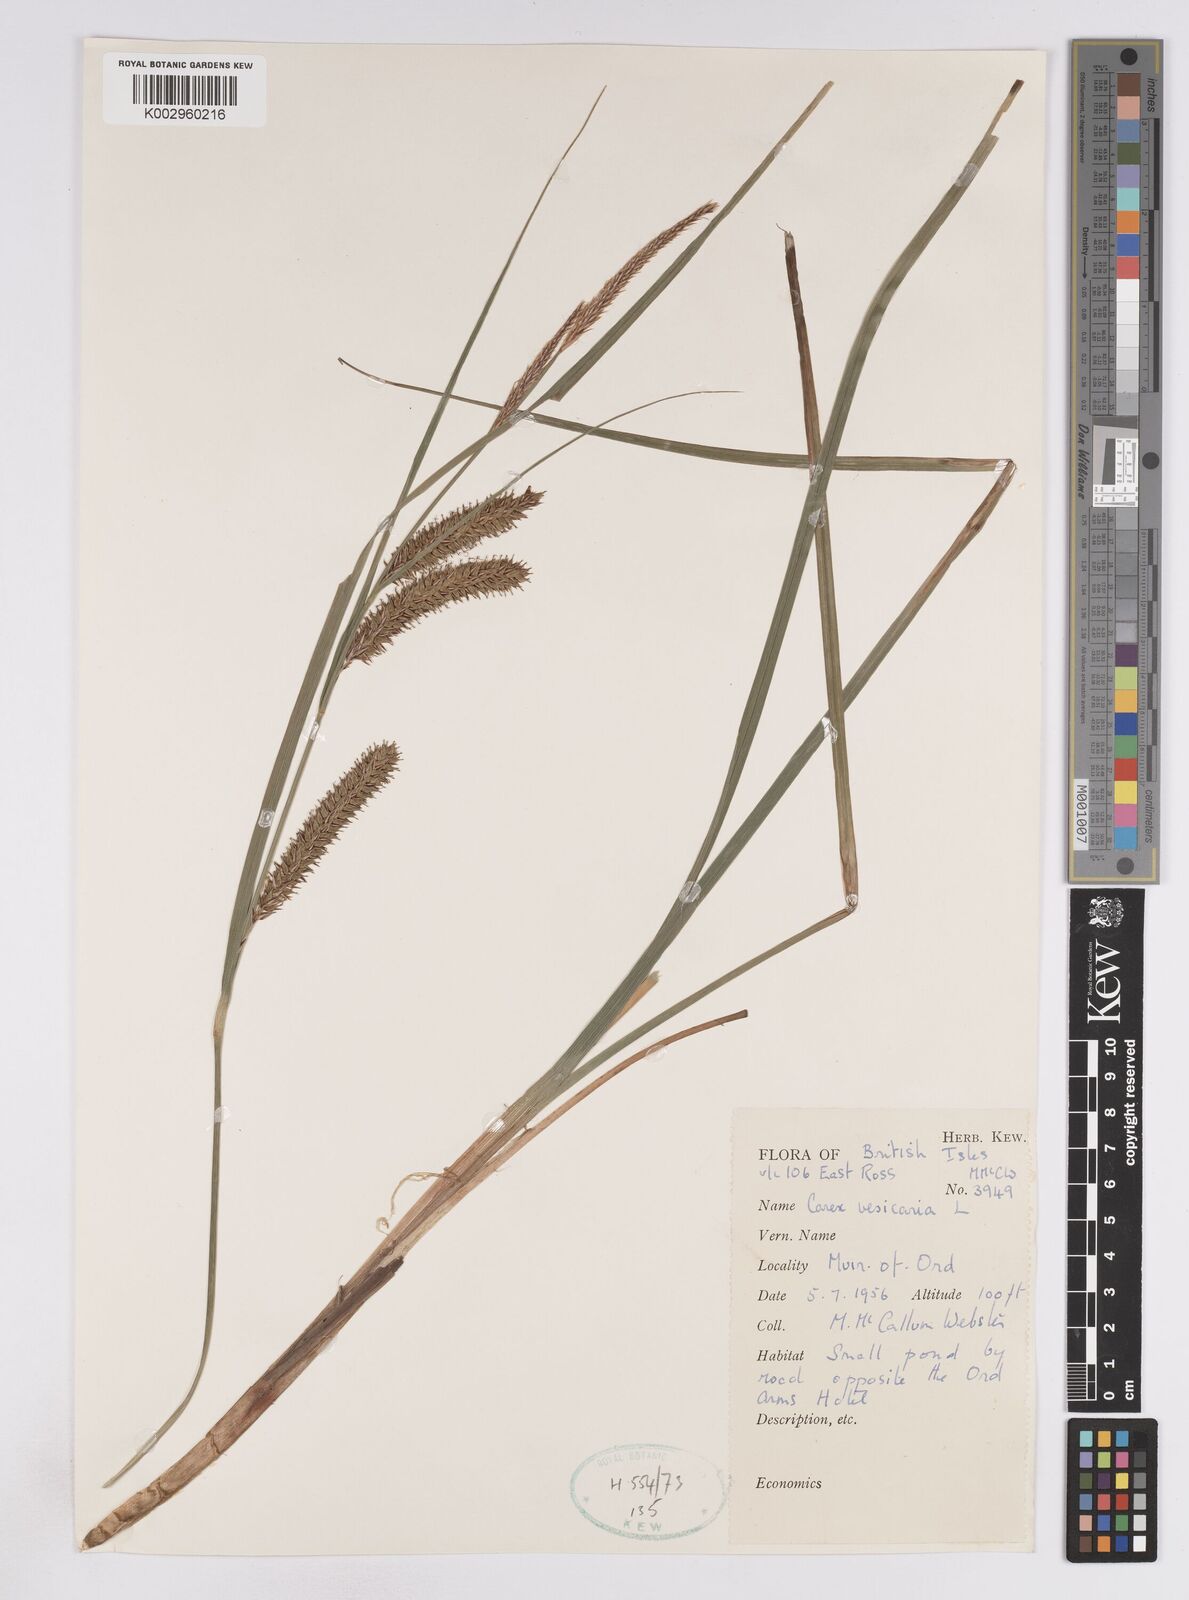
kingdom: Plantae
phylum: Tracheophyta
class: Liliopsida
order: Poales
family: Cyperaceae
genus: Carex
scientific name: Carex vesicaria
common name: Bladder-sedge
